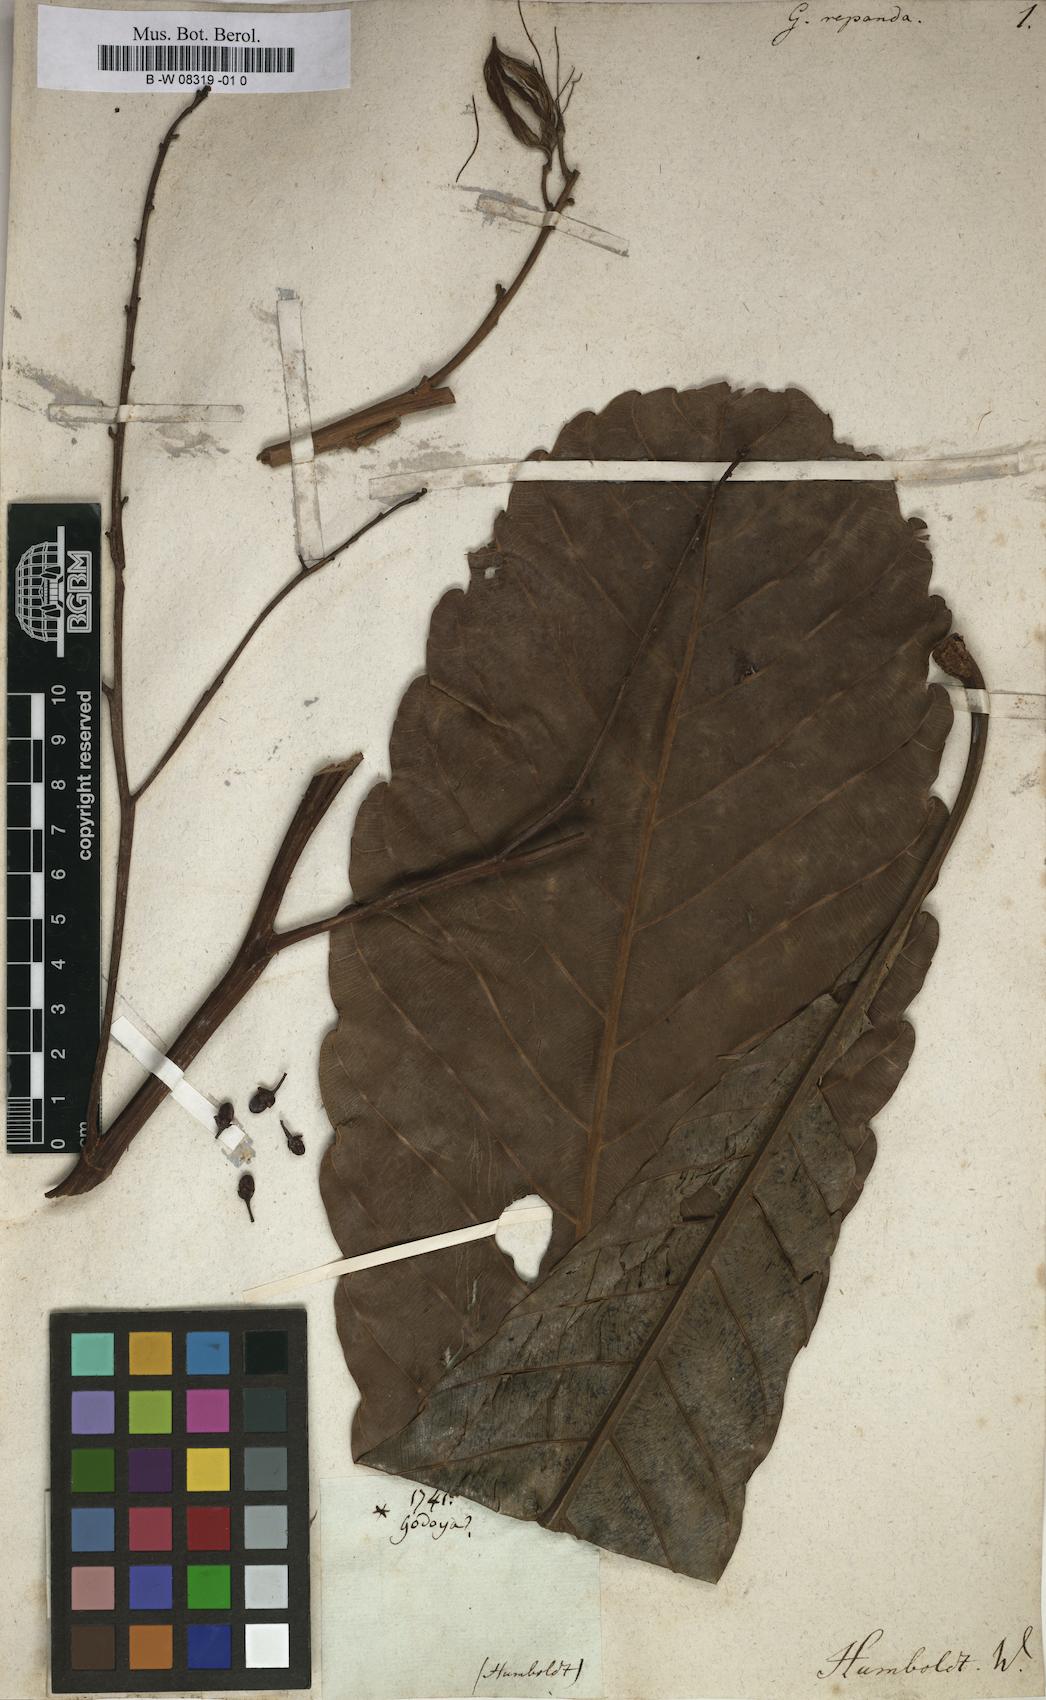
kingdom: Plantae
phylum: Tracheophyta
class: Magnoliopsida
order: Malpighiales
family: Ochnaceae
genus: Cespedesia
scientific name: Cespedesia spathulata
